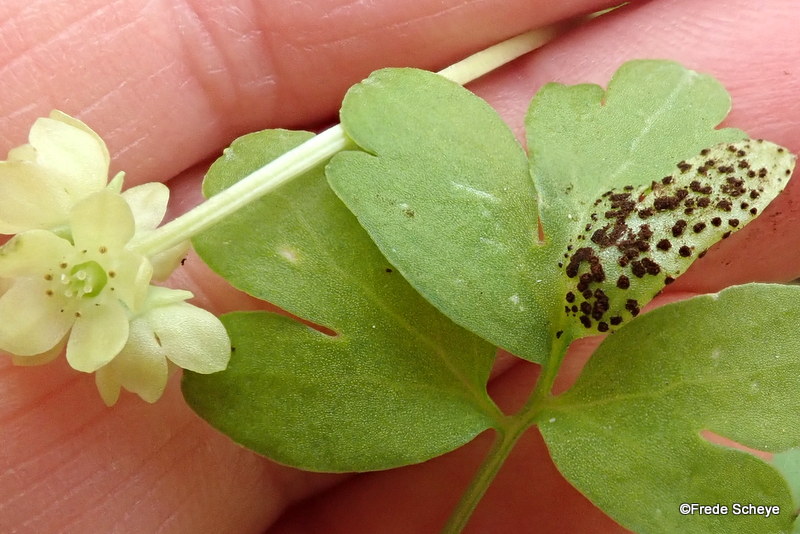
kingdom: Fungi
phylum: Basidiomycota
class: Pucciniomycetes
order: Pucciniales
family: Pucciniaceae
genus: Puccinia
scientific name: Puccinia adoxae
